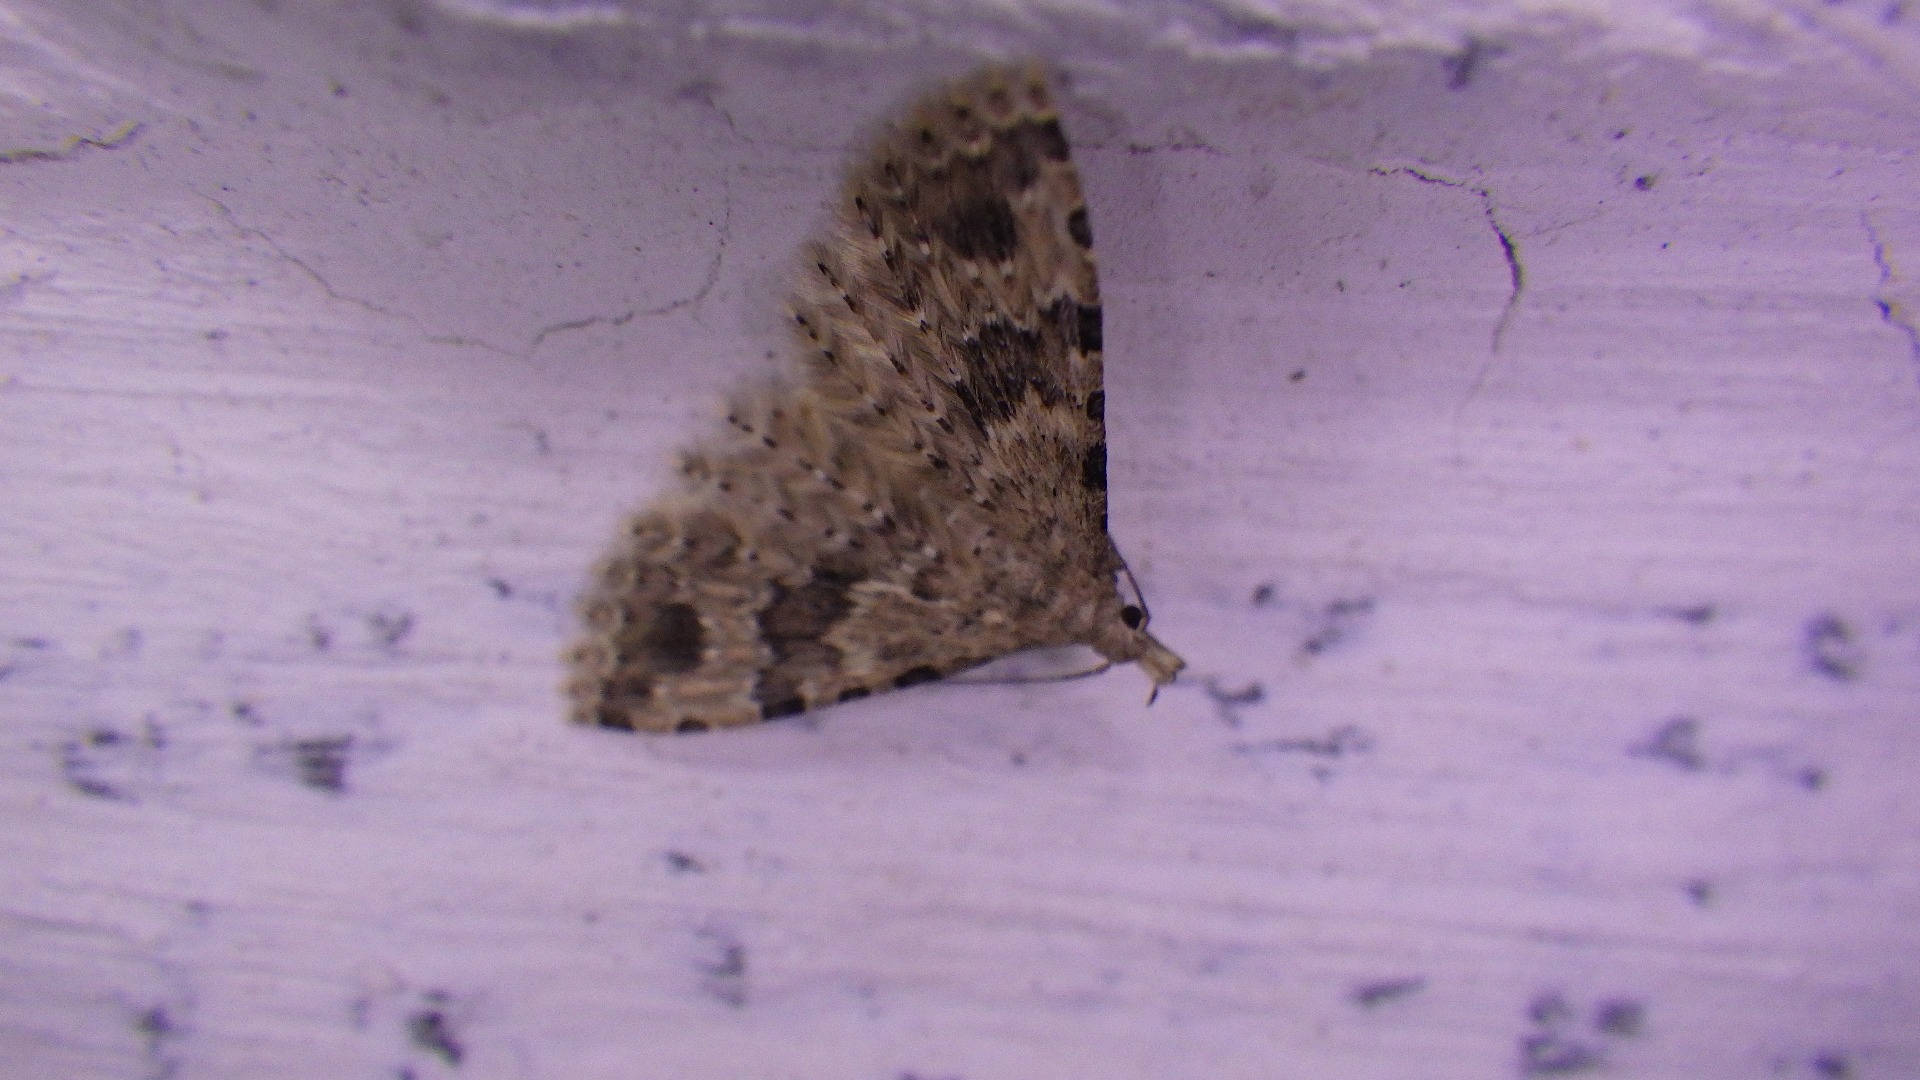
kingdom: Animalia
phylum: Arthropoda
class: Insecta
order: Lepidoptera
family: Alucitidae
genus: Alucita
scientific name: Alucita hexadactyla
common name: Kaprifoliefjermøl
